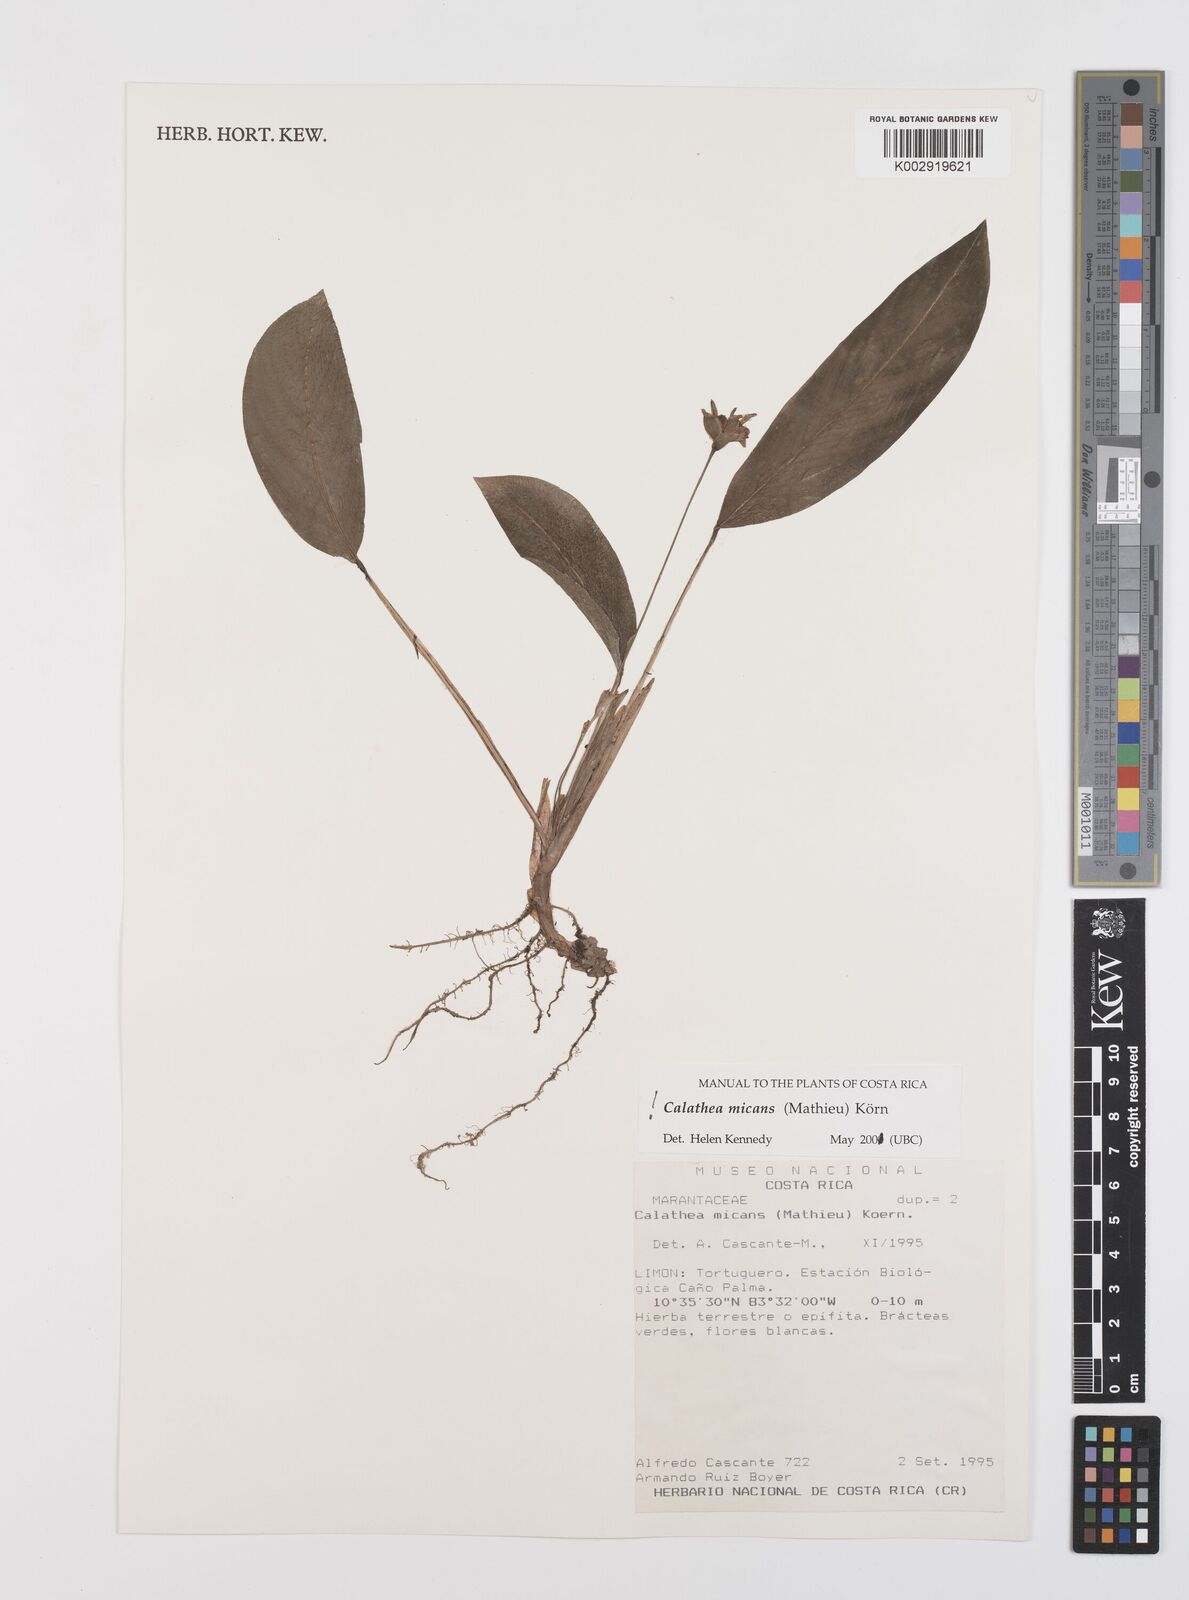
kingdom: Plantae
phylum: Tracheophyta
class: Liliopsida
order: Zingiberales
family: Marantaceae
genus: Goeppertia
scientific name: Goeppertia micans
